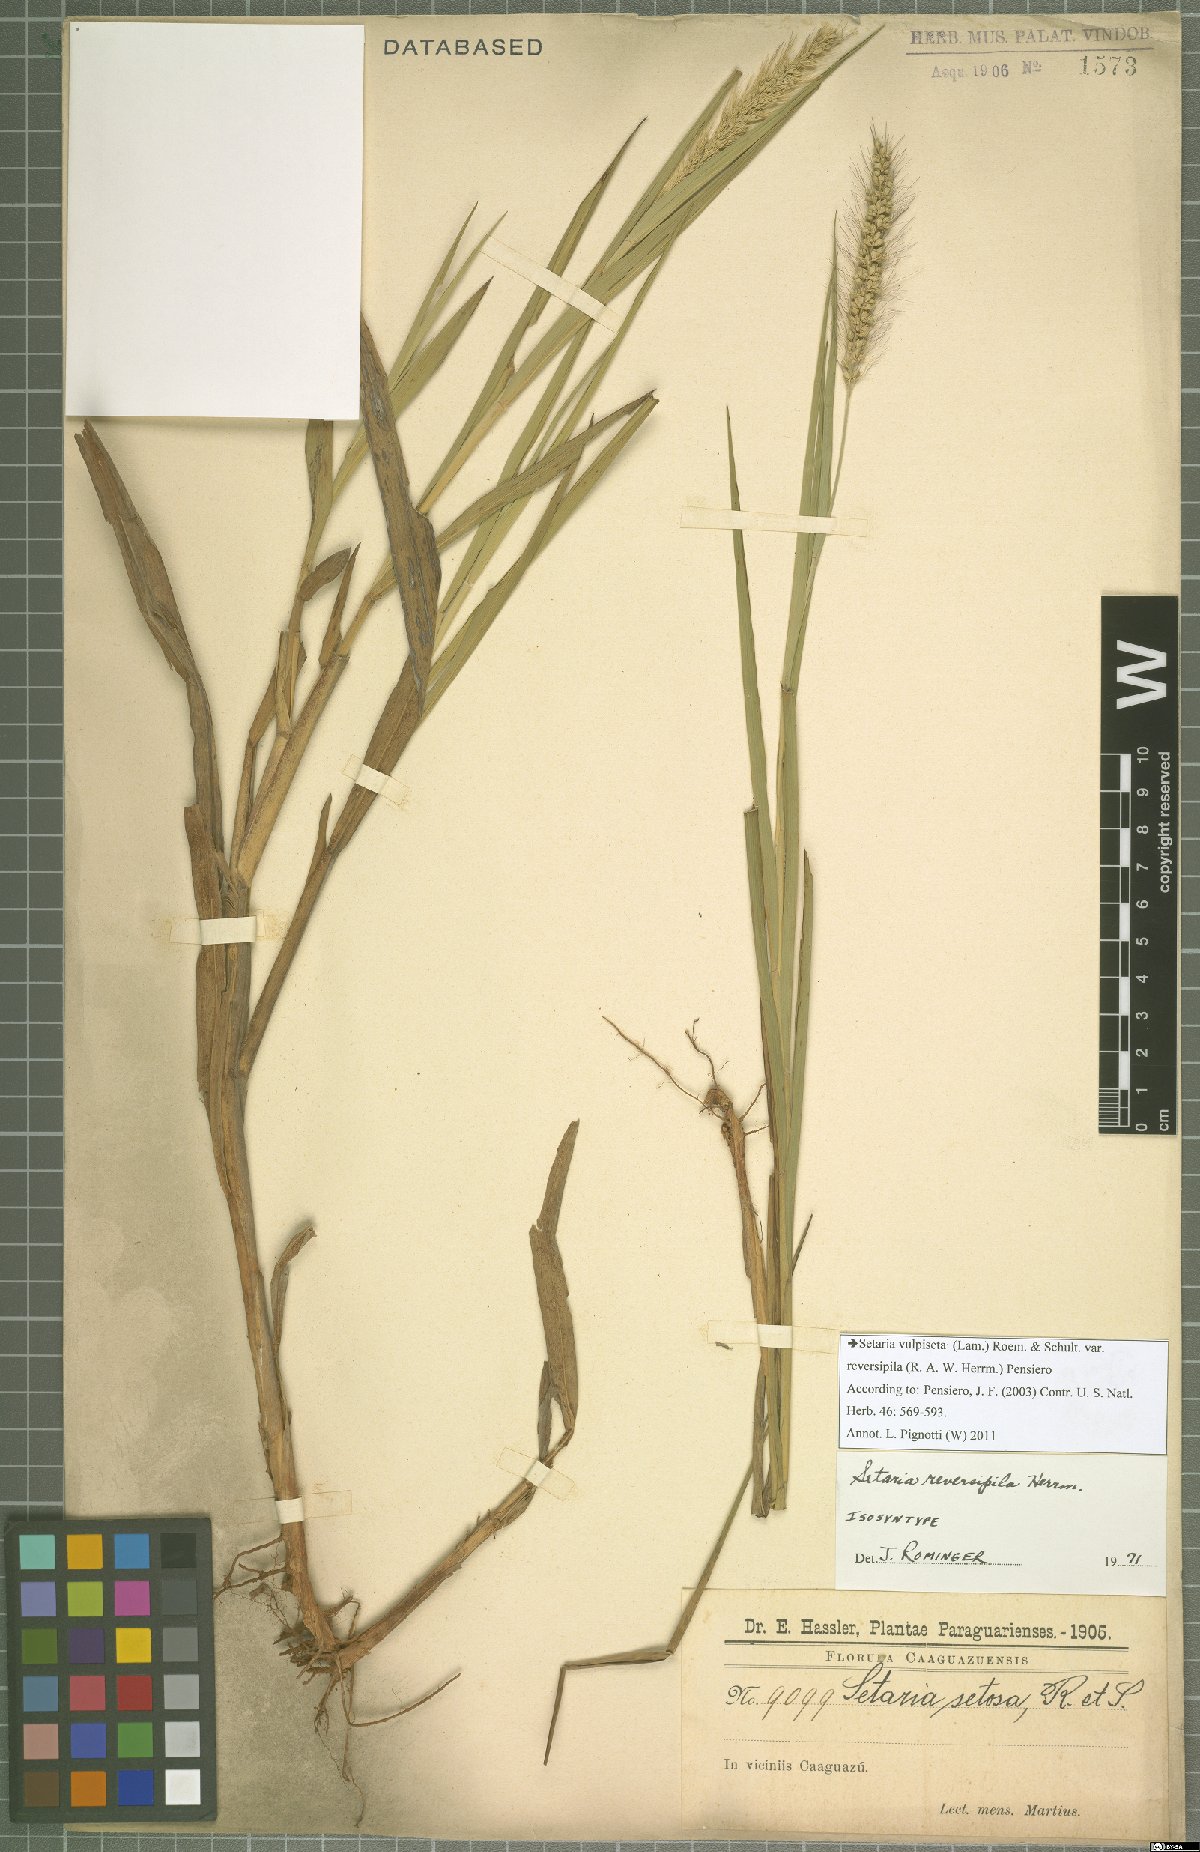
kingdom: Plantae
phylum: Tracheophyta
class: Liliopsida
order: Poales
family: Poaceae
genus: Setaria
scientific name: Setaria vulpiseta
